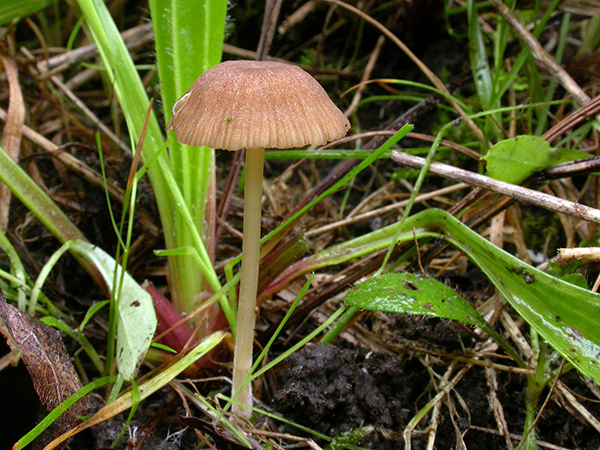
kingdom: Fungi
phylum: Basidiomycota
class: Agaricomycetes
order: Agaricales
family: Entolomataceae
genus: Entoloma
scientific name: Entoloma olivaceotinctum
